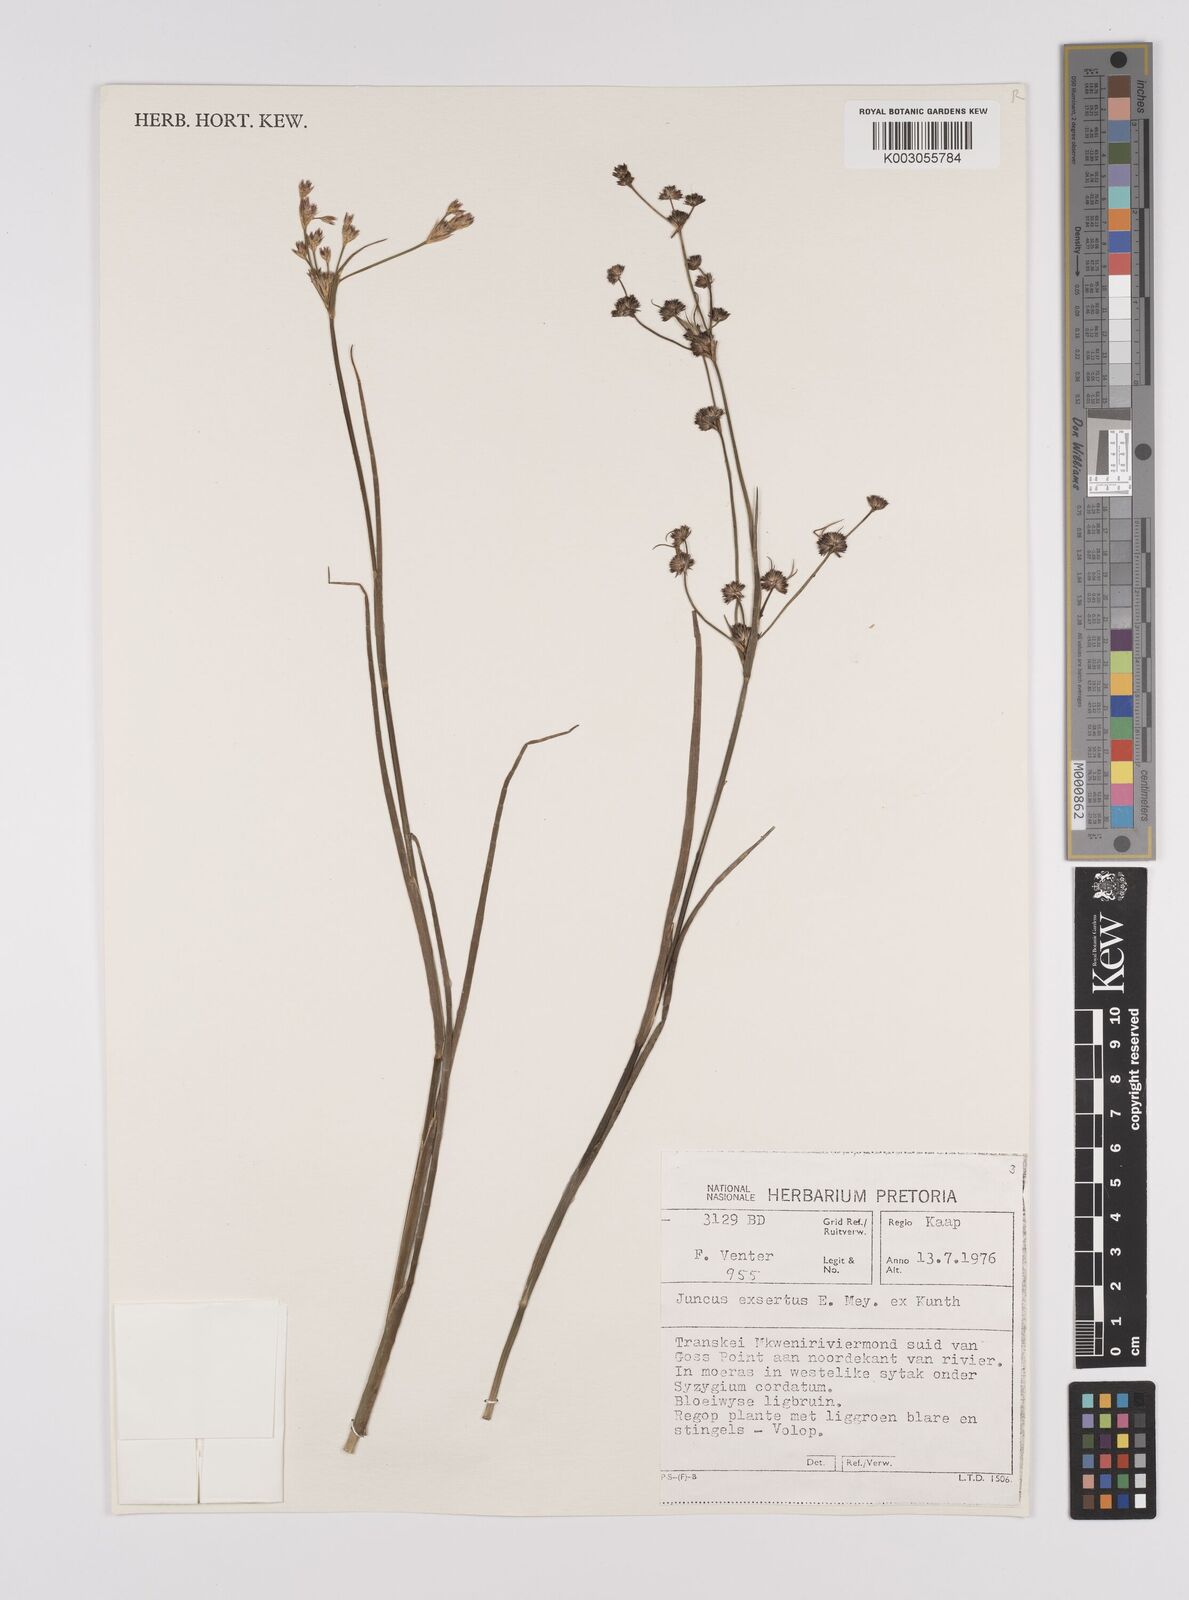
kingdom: Plantae
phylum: Tracheophyta
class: Liliopsida
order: Poales
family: Juncaceae
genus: Juncus
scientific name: Juncus exsertus
